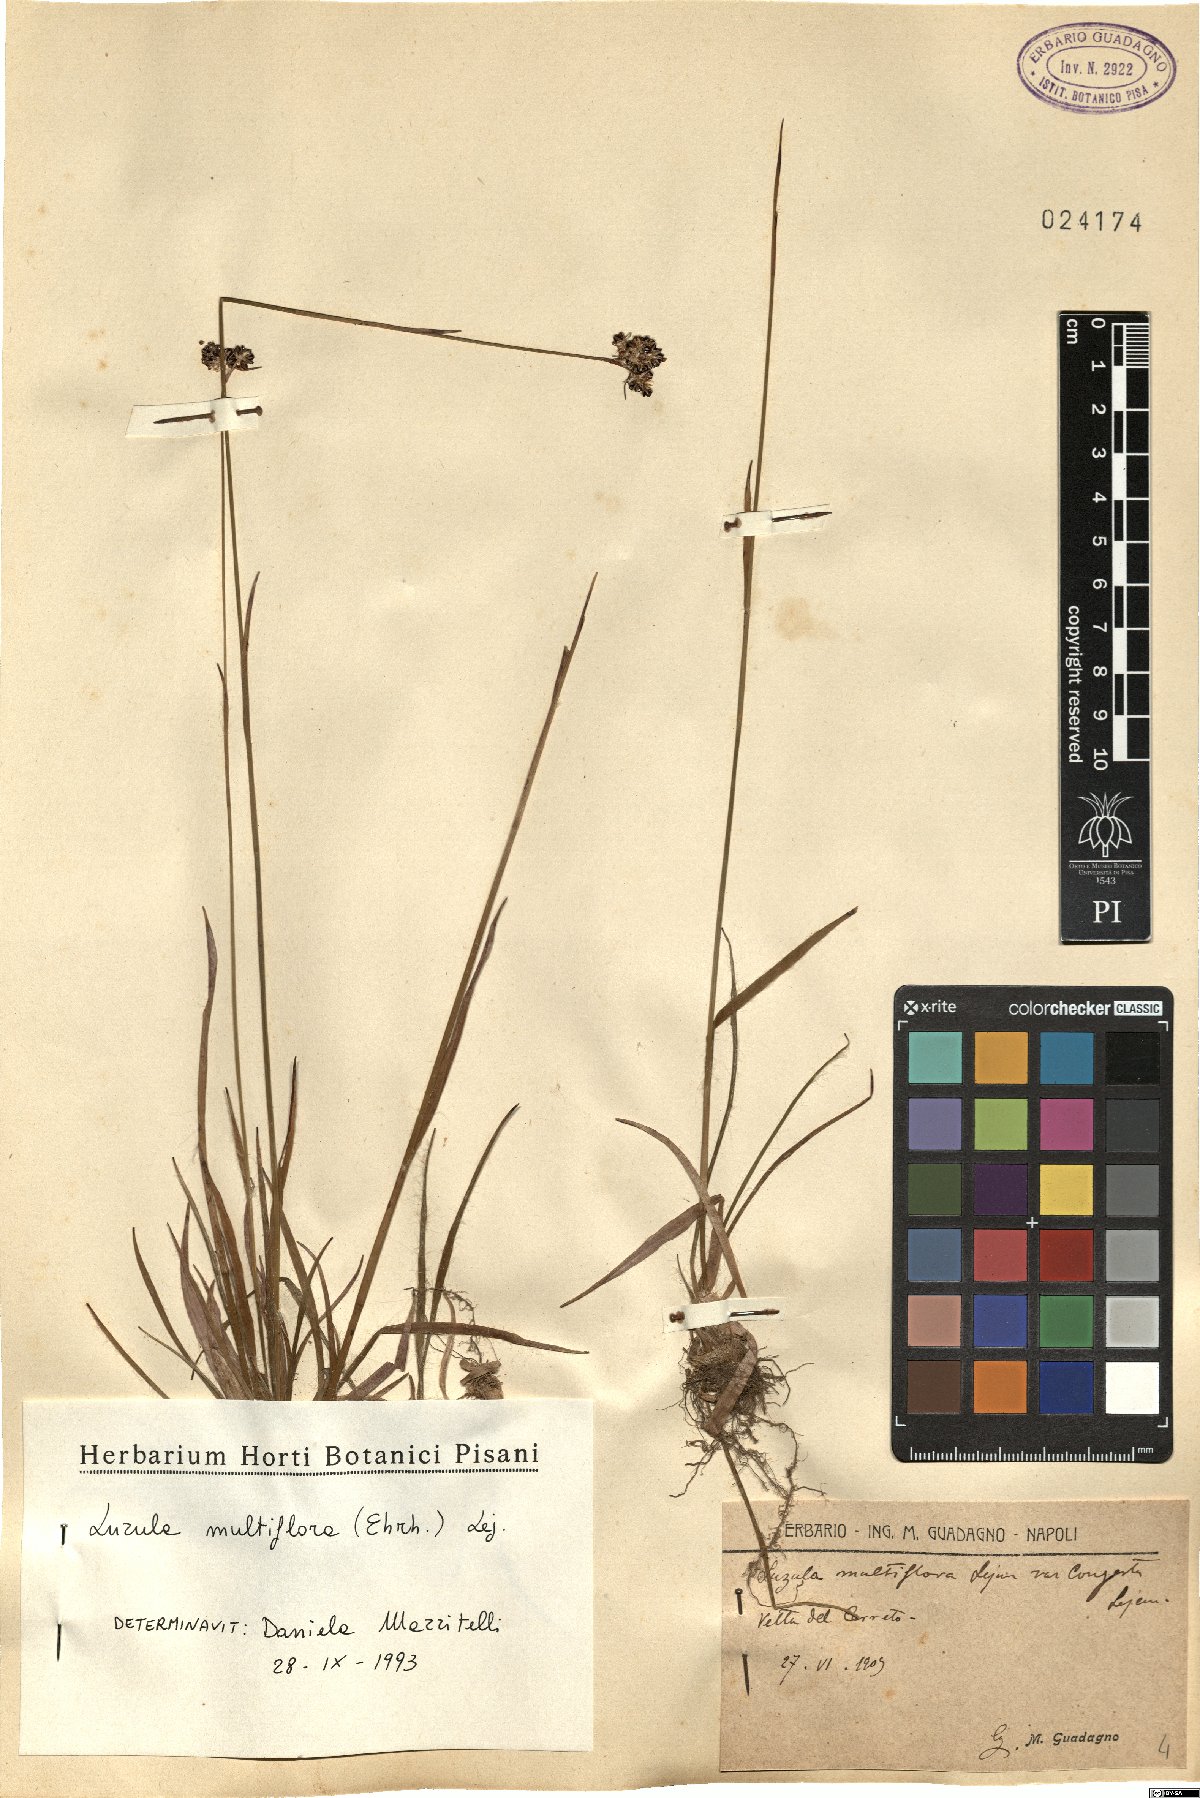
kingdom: Plantae
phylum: Tracheophyta
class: Liliopsida
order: Poales
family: Juncaceae
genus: Luzula
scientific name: Luzula multiflora
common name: Heath wood-rush
